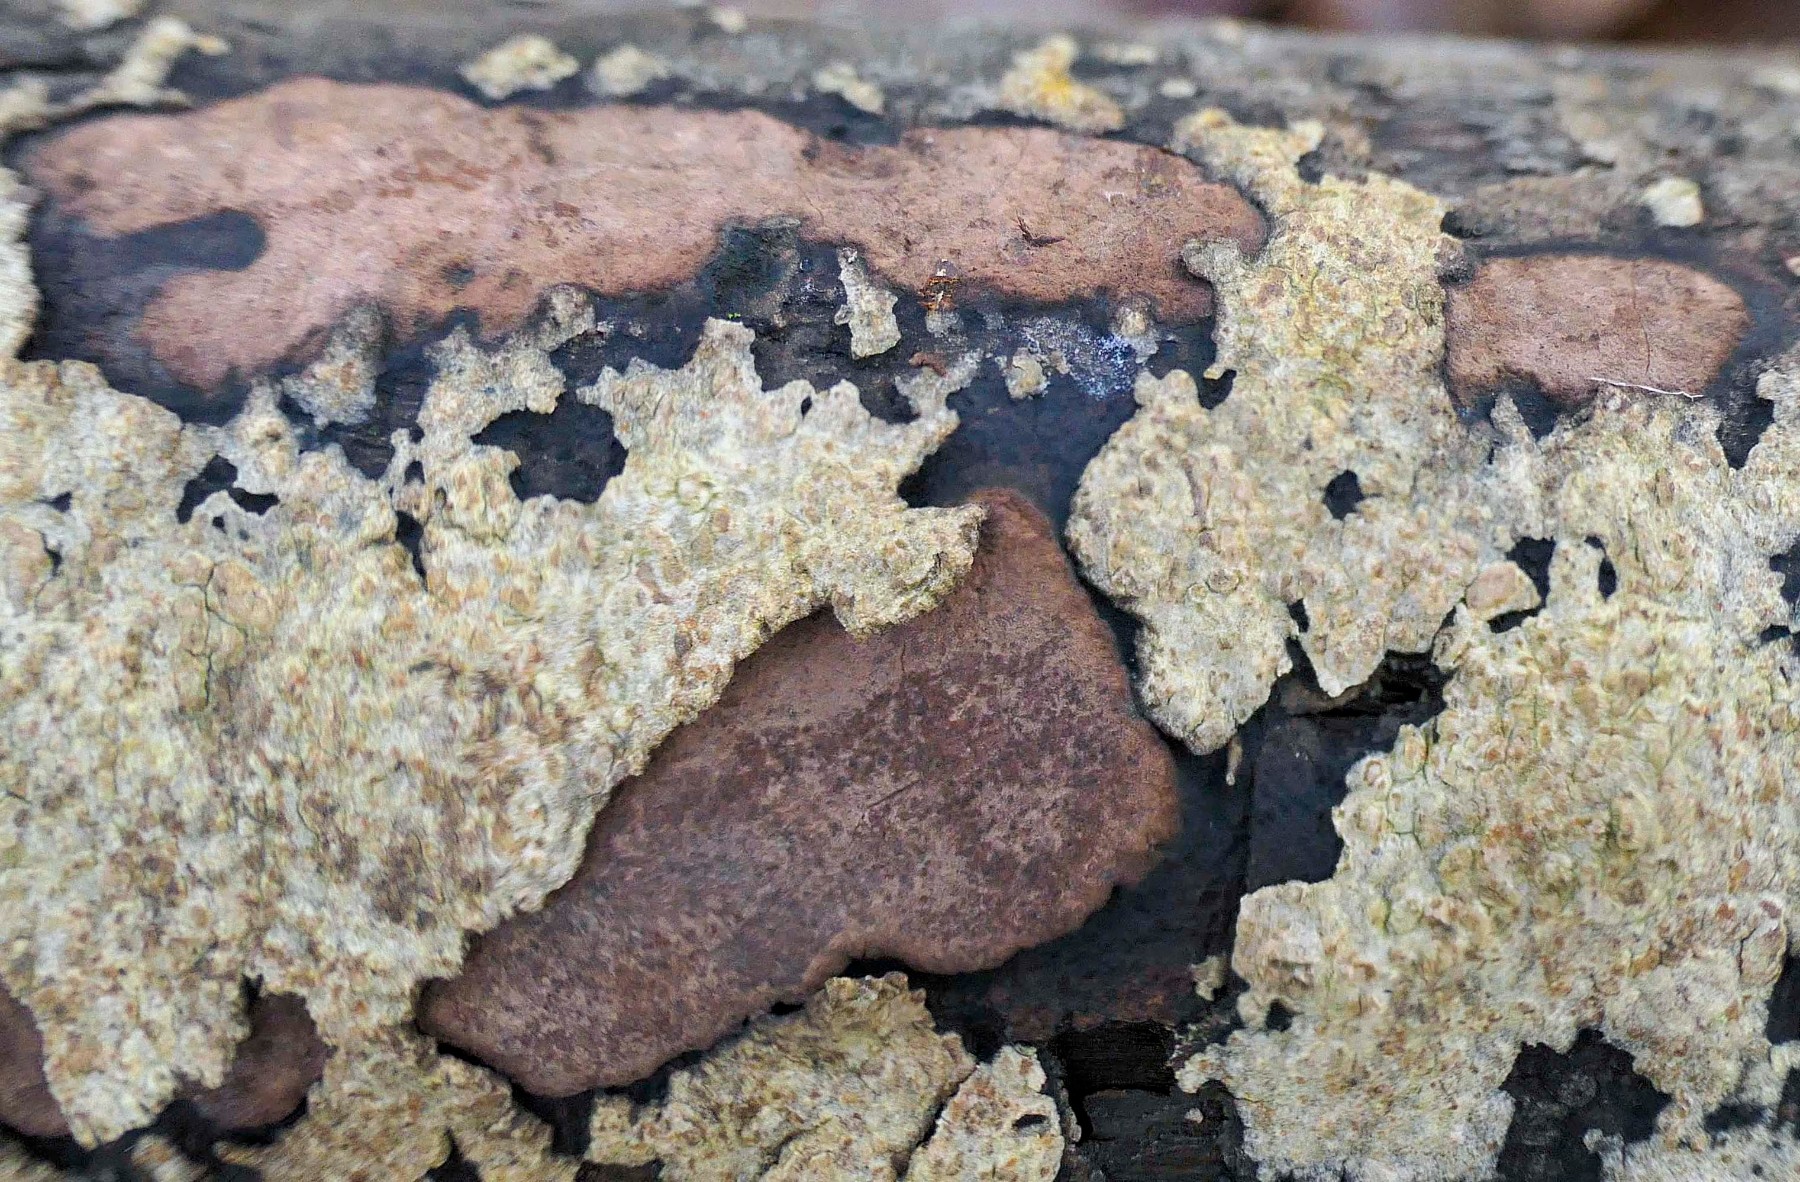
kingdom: Fungi
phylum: Ascomycota
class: Sordariomycetes
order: Xylariales
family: Hypoxylaceae
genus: Hypoxylon
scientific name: Hypoxylon petriniae
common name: nedsænket kulbær
